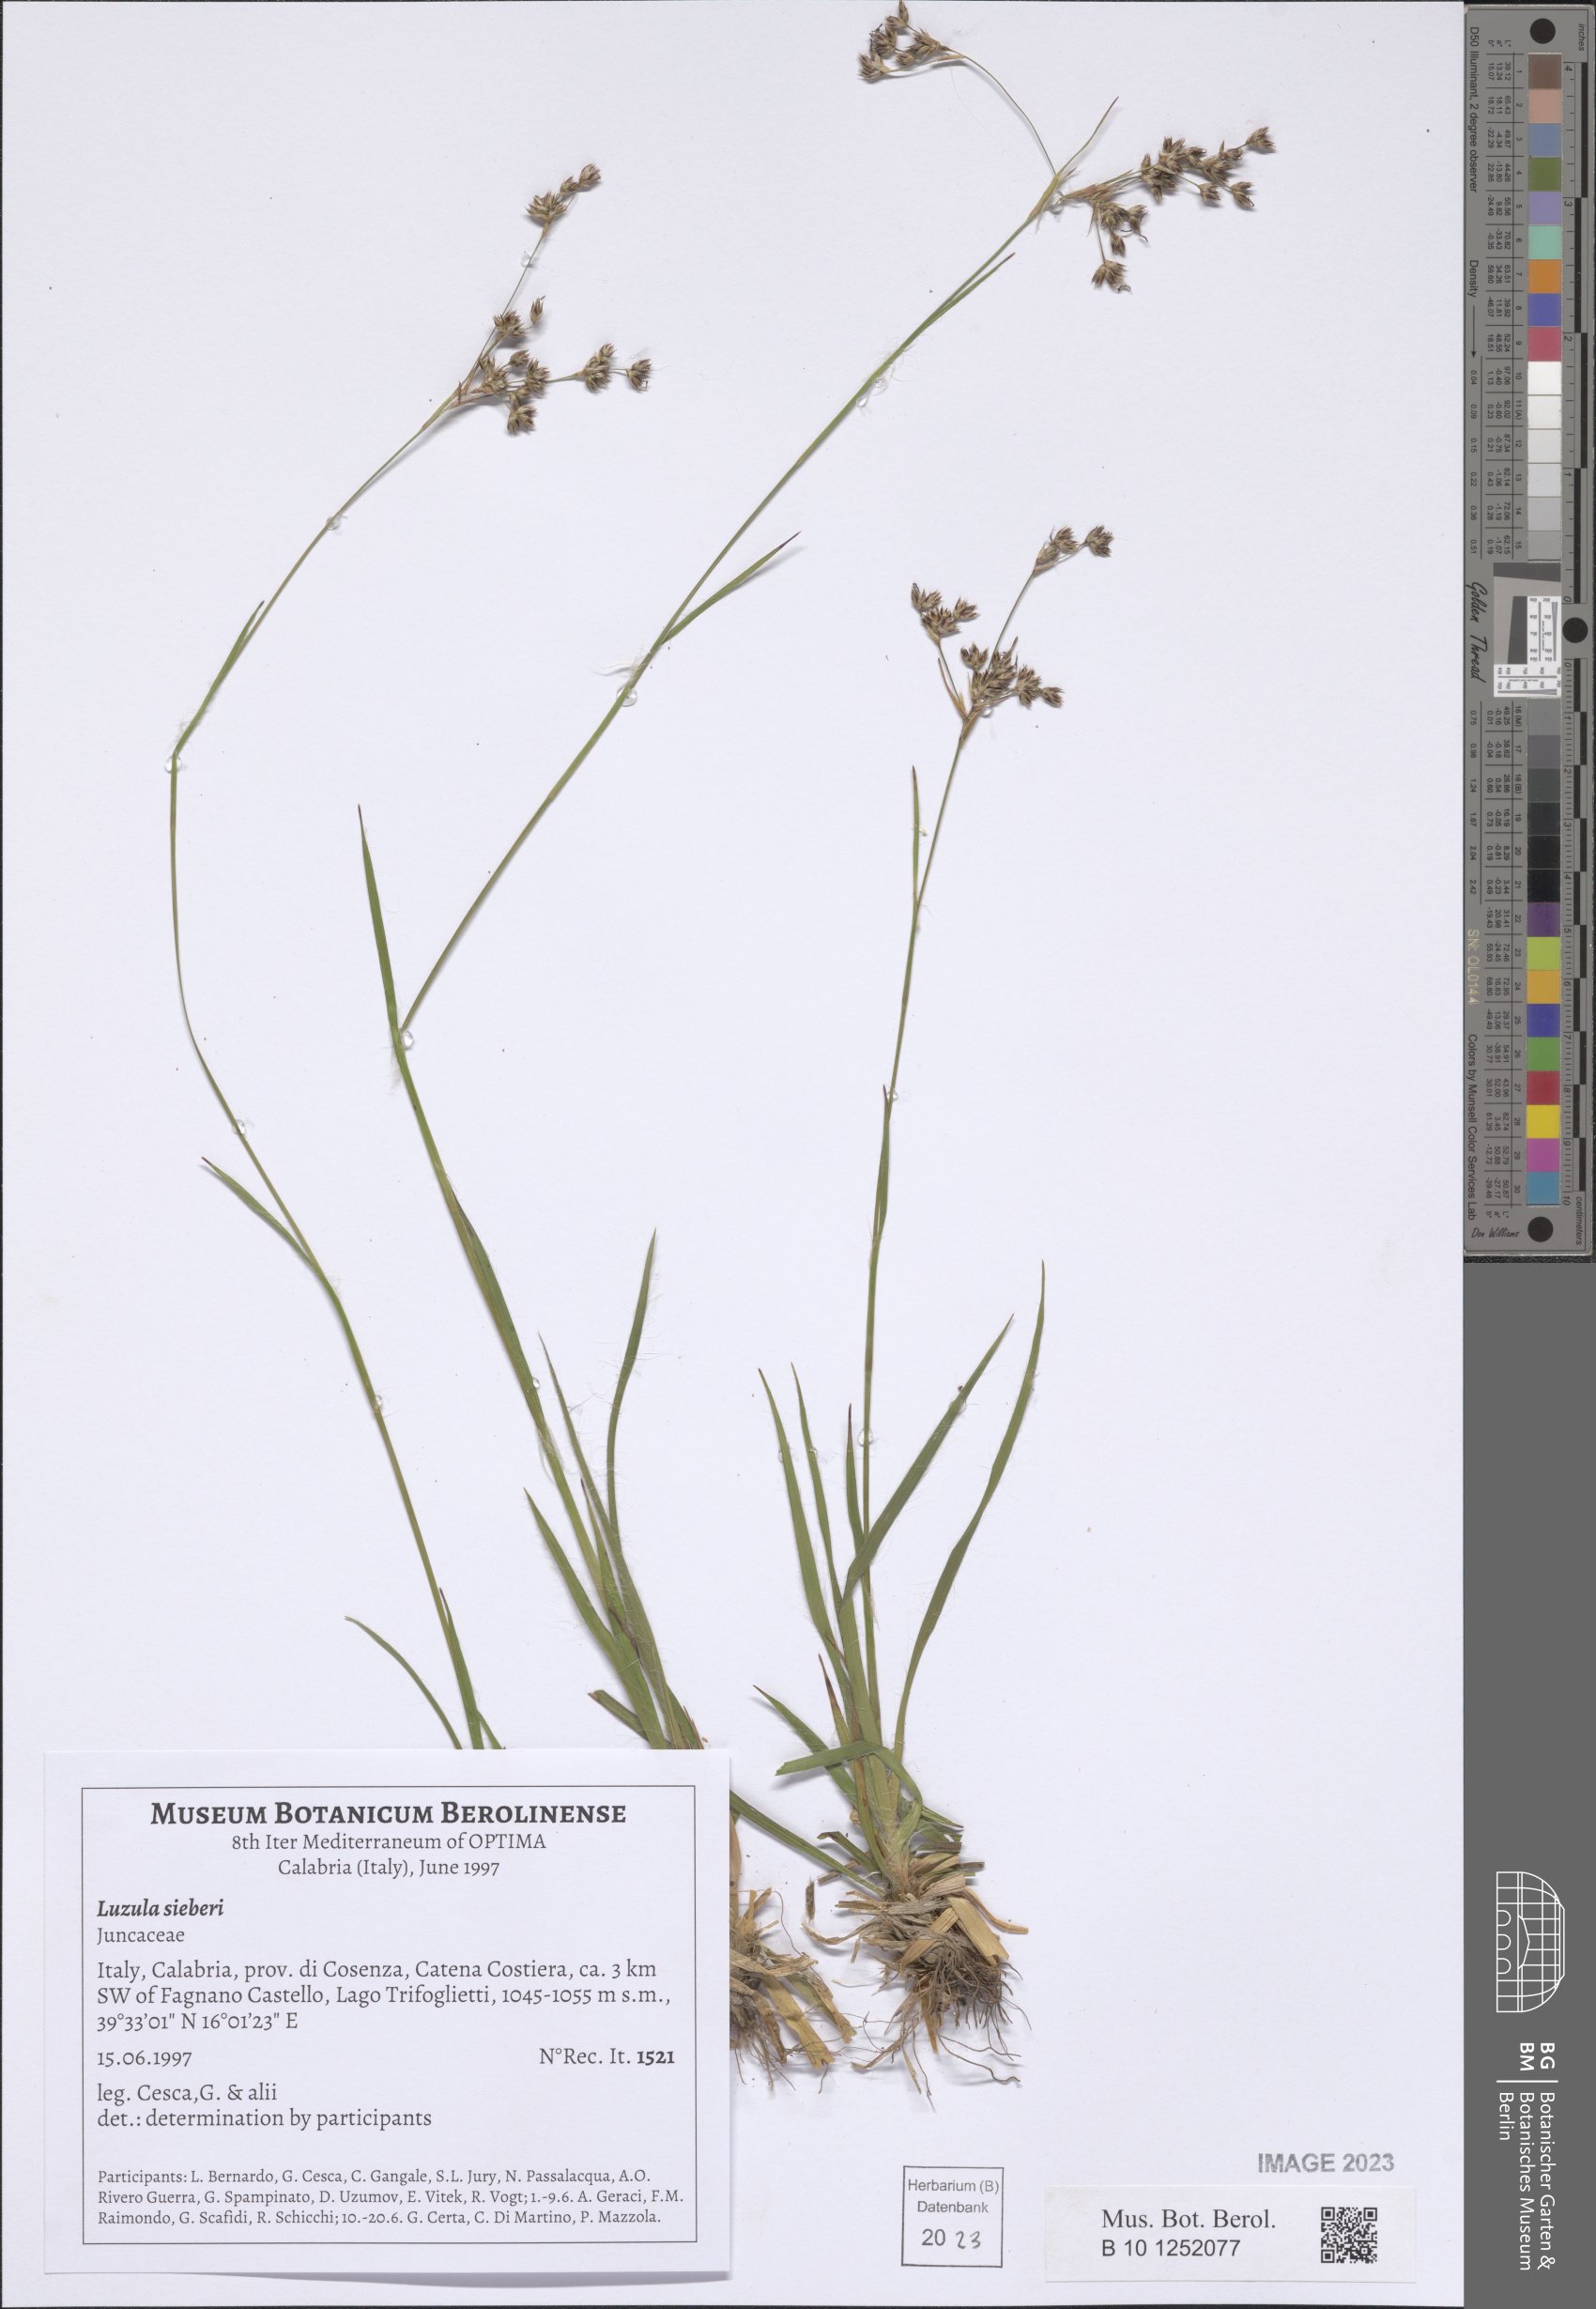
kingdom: Plantae
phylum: Tracheophyta
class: Liliopsida
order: Poales
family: Juncaceae
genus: Luzula
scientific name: Luzula sylvatica
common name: Great wood-rush
